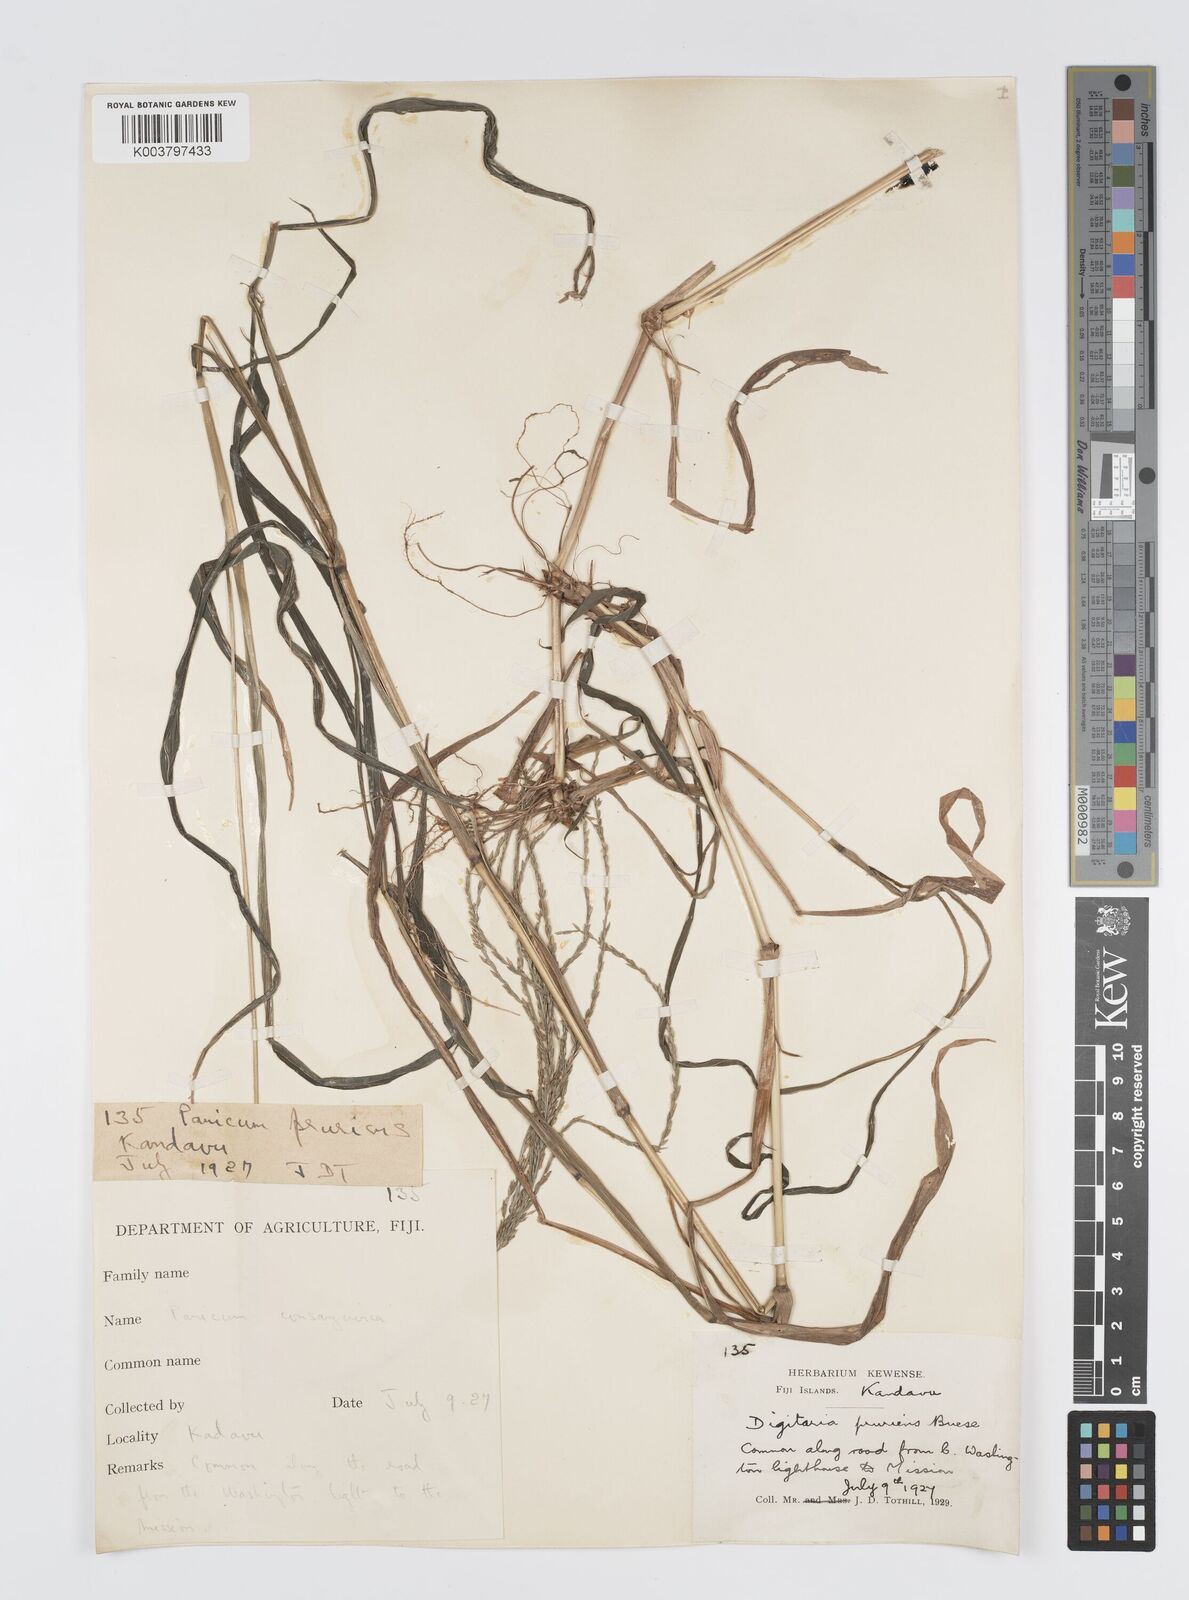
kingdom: Plantae
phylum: Tracheophyta
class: Liliopsida
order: Poales
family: Poaceae
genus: Digitaria
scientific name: Digitaria setigera
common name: East indian crabgrass
